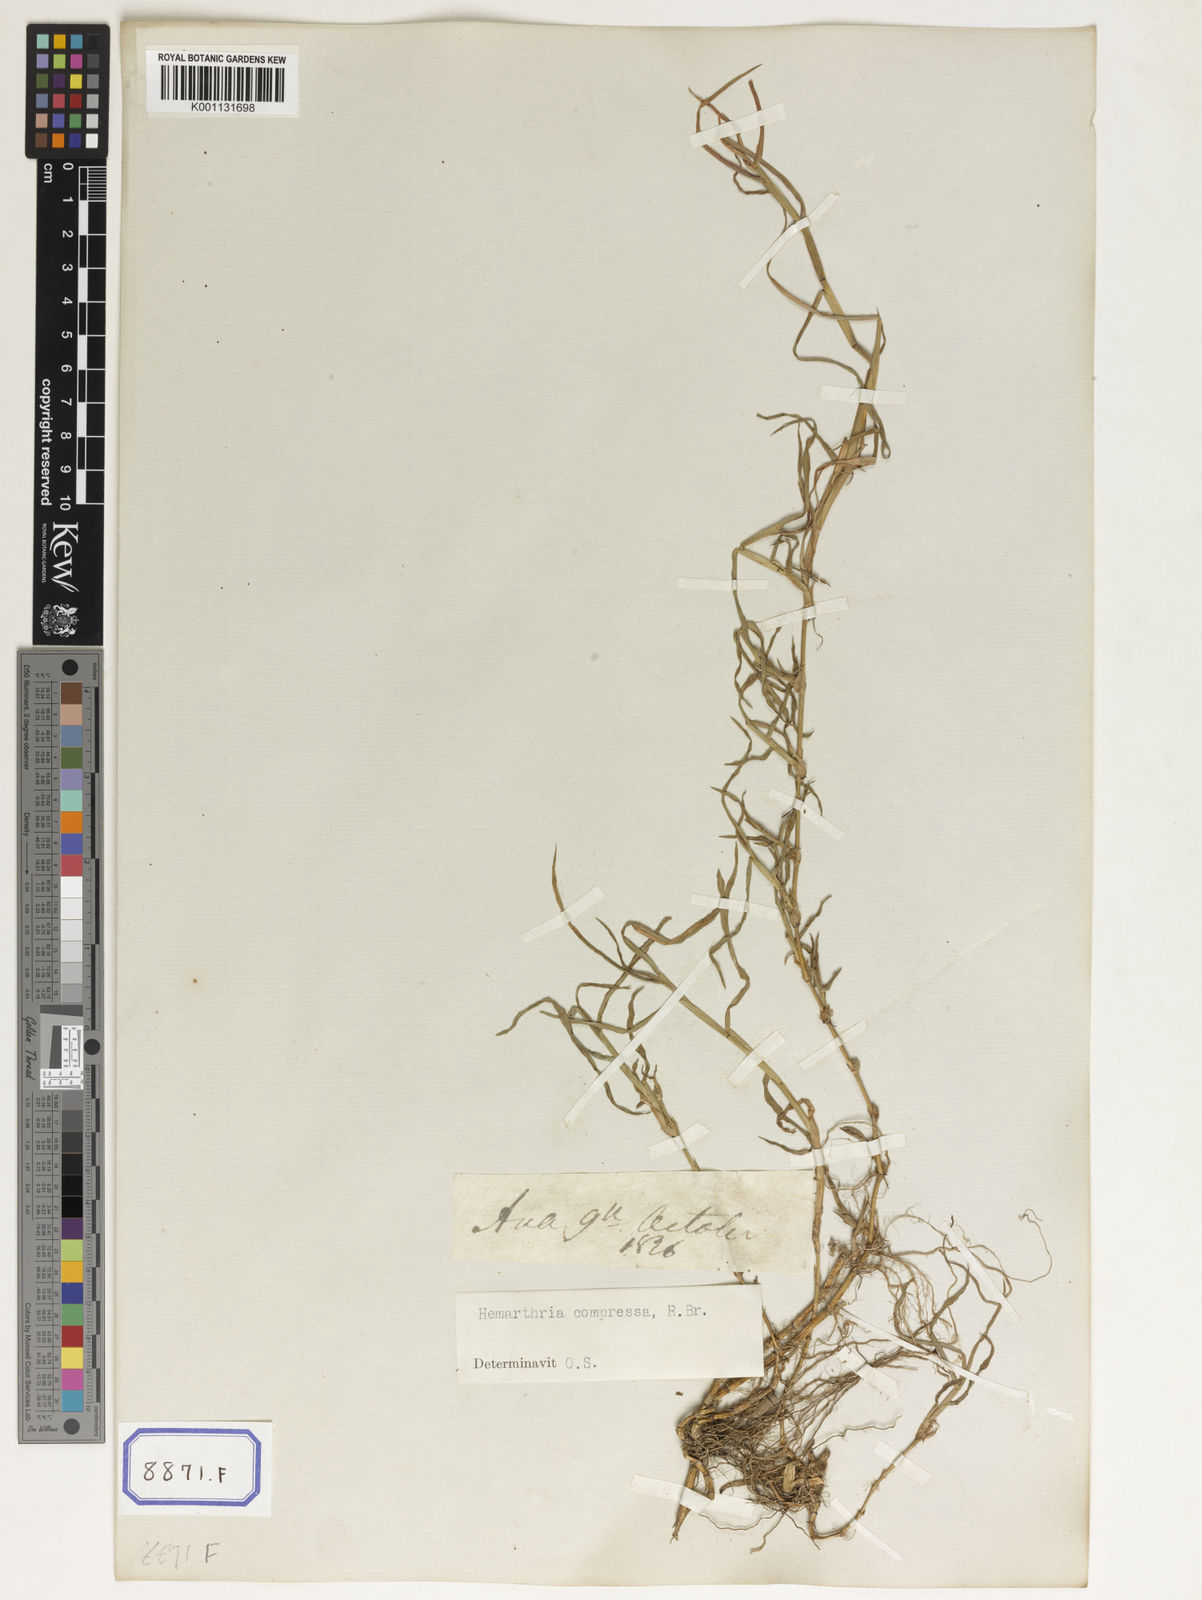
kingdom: Plantae
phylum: Tracheophyta
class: Liliopsida
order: Poales
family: Poaceae
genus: Hemarthria
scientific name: Hemarthria
